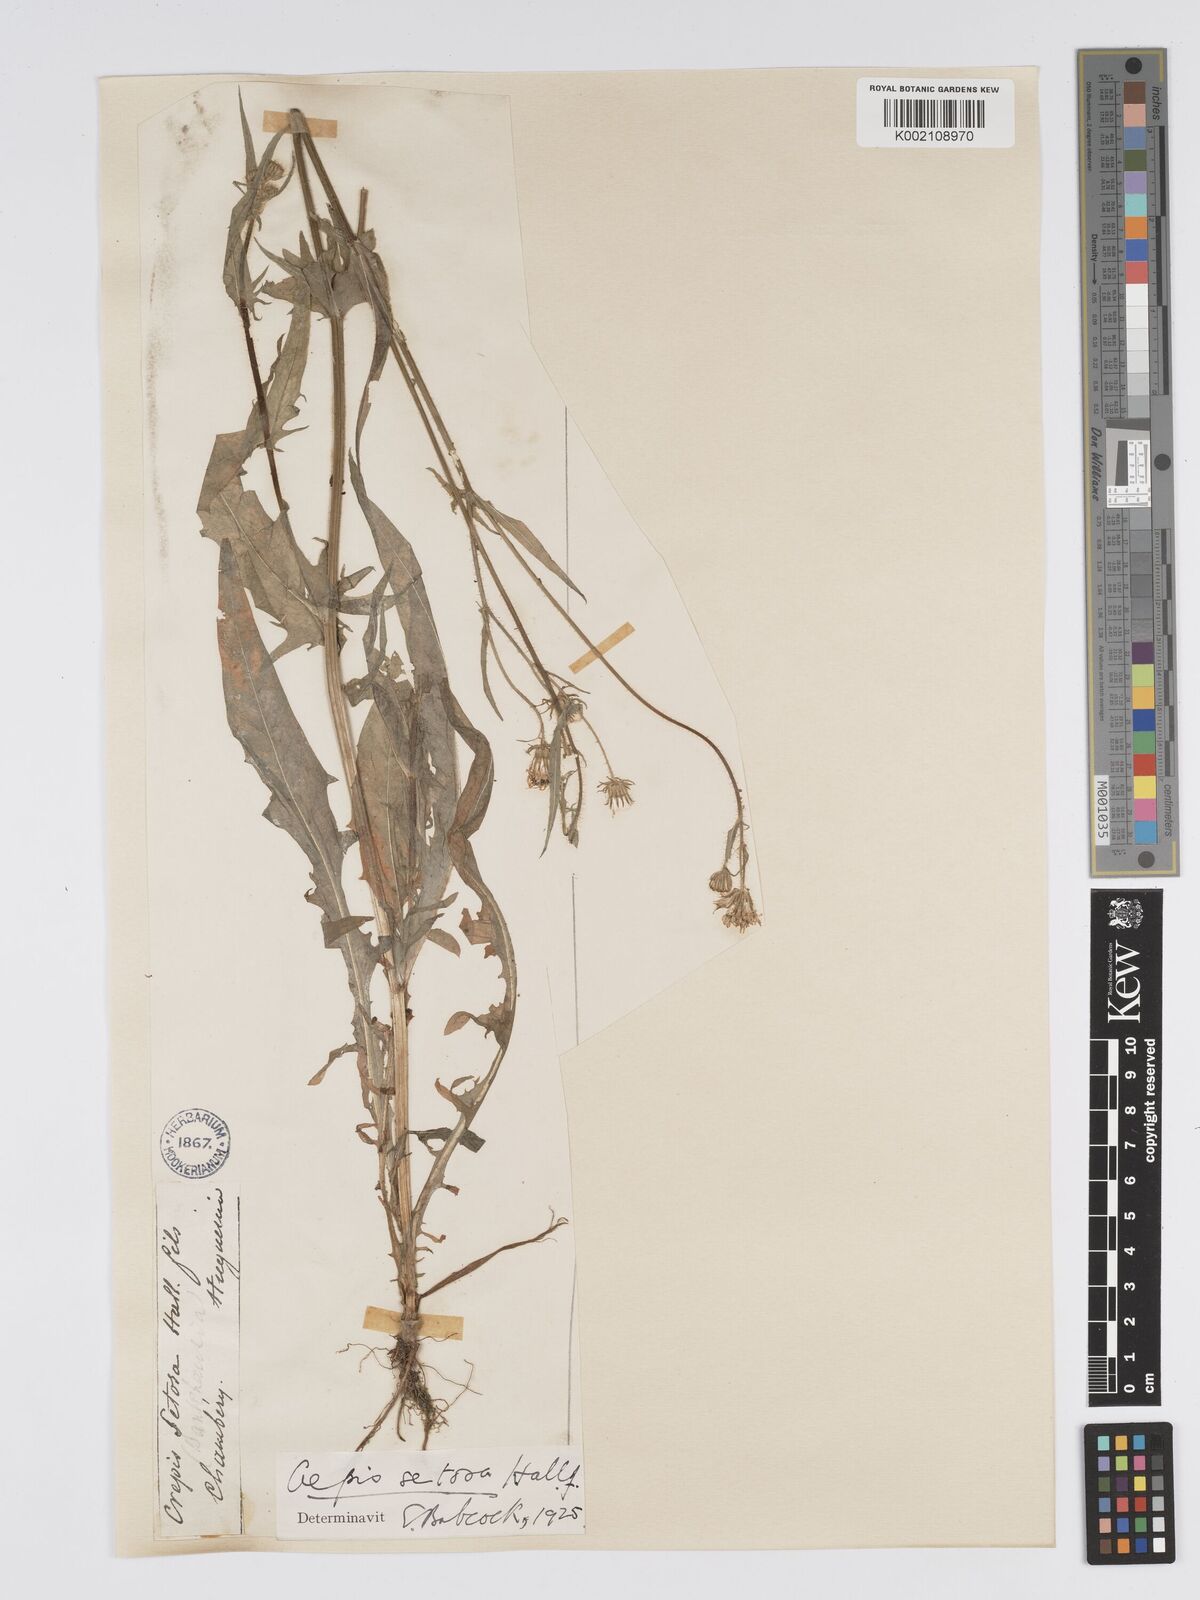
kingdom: Plantae
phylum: Tracheophyta
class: Magnoliopsida
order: Asterales
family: Asteraceae
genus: Crepis
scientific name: Crepis setosa
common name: Bristly hawk's-beard
